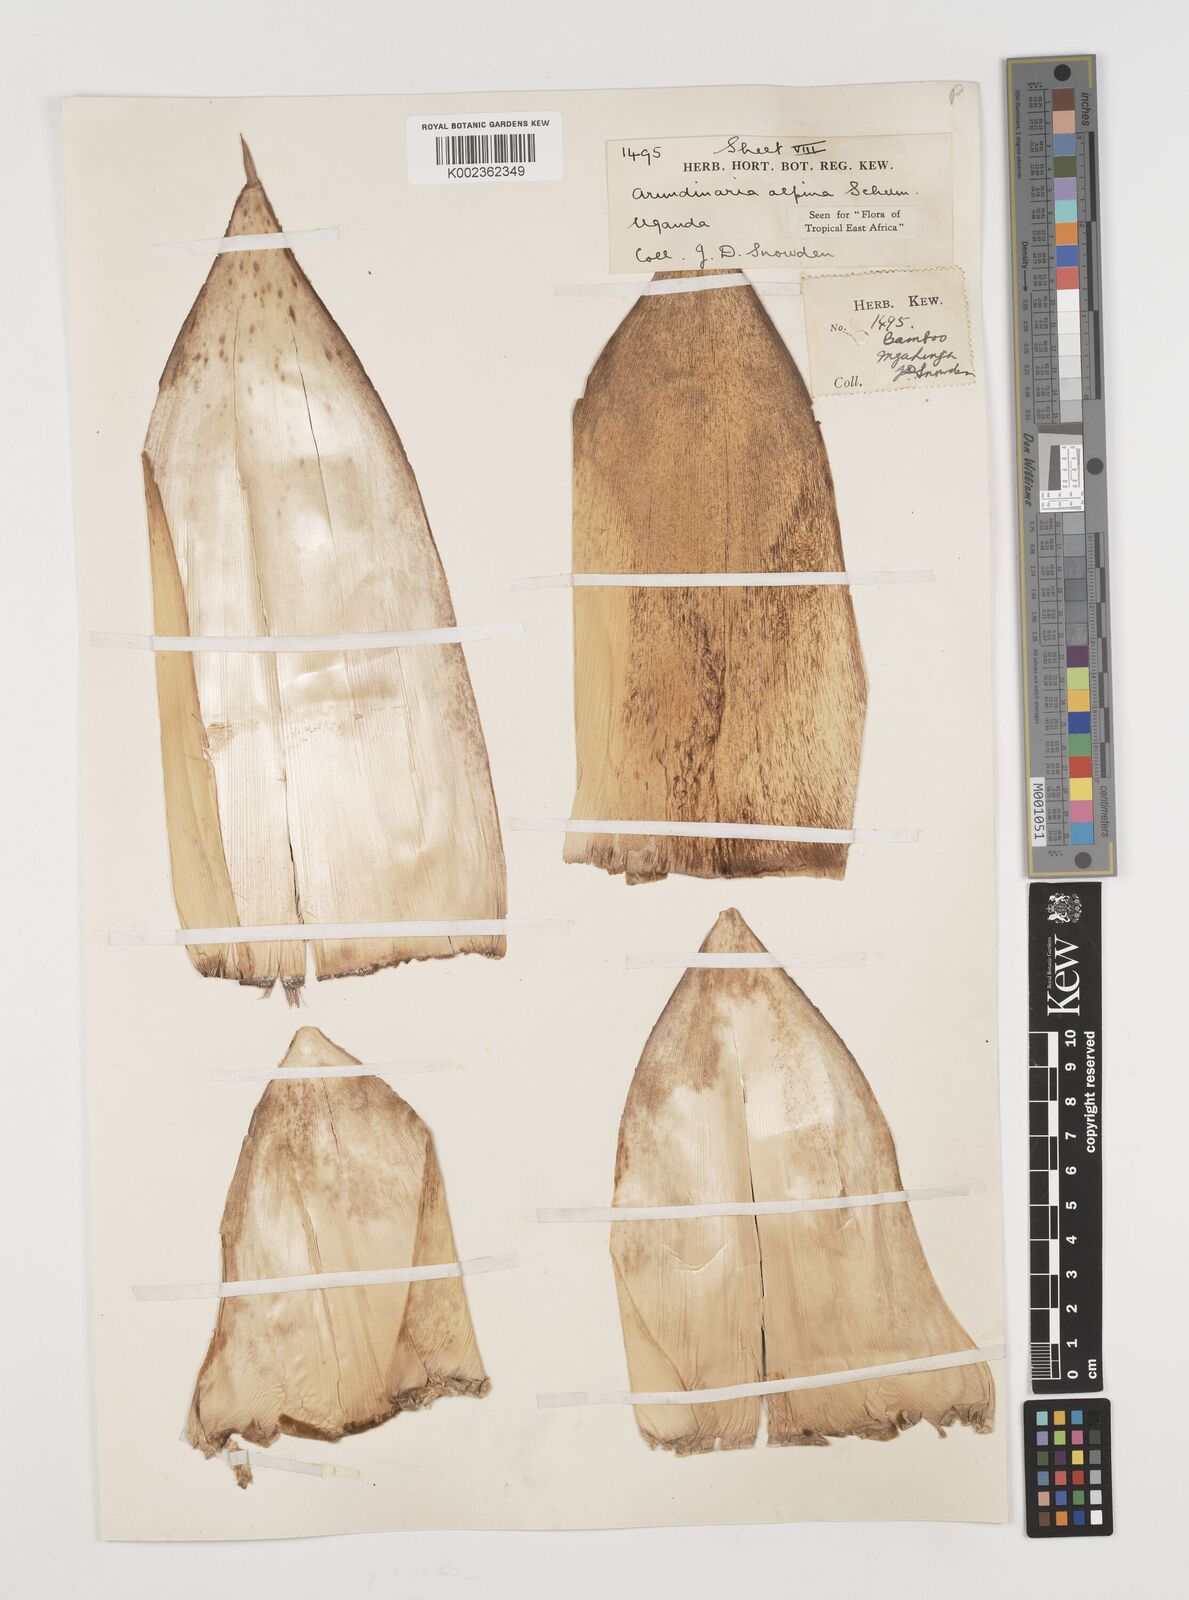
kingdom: Plantae
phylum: Tracheophyta
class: Liliopsida
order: Poales
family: Poaceae
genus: Oldeania
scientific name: Oldeania alpina
